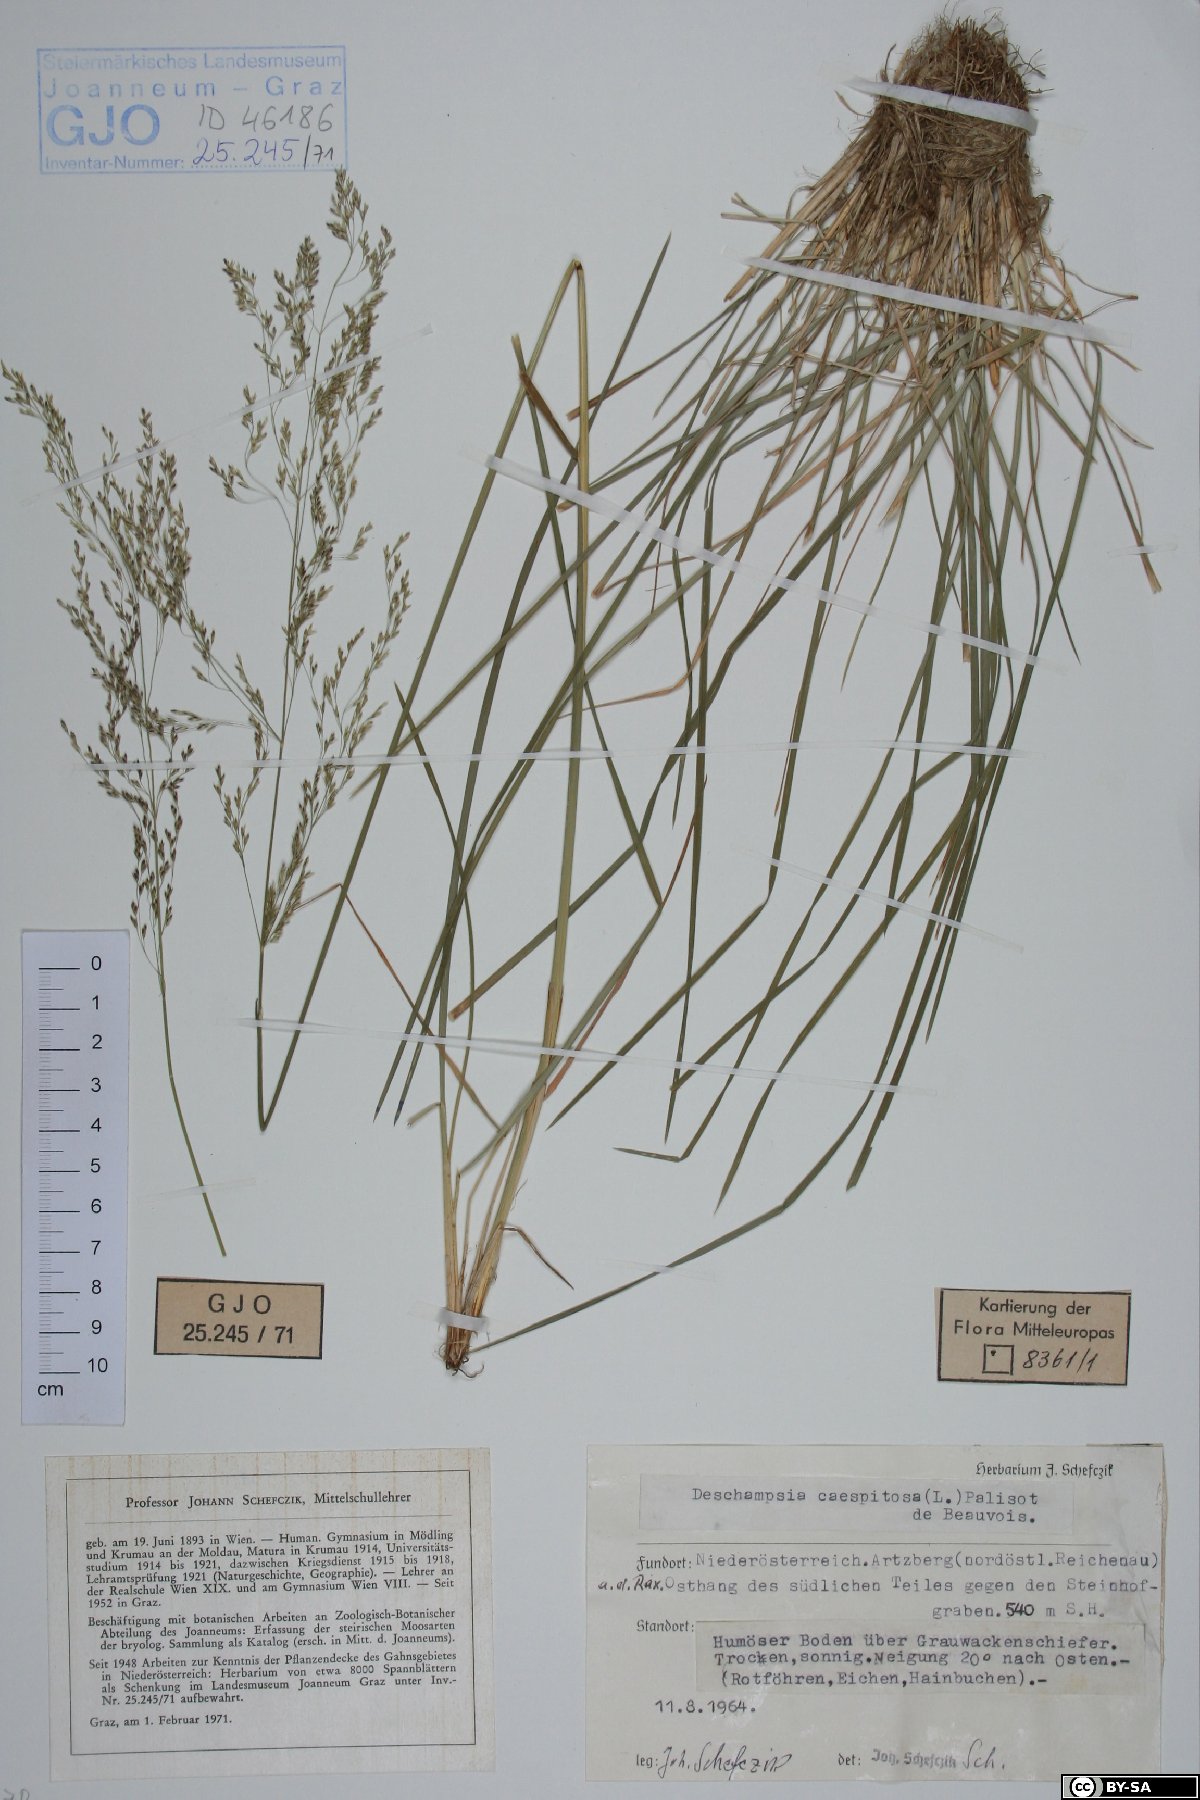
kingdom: Plantae
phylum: Tracheophyta
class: Liliopsida
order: Poales
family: Poaceae
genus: Deschampsia
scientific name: Deschampsia cespitosa
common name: Tufted hair-grass
